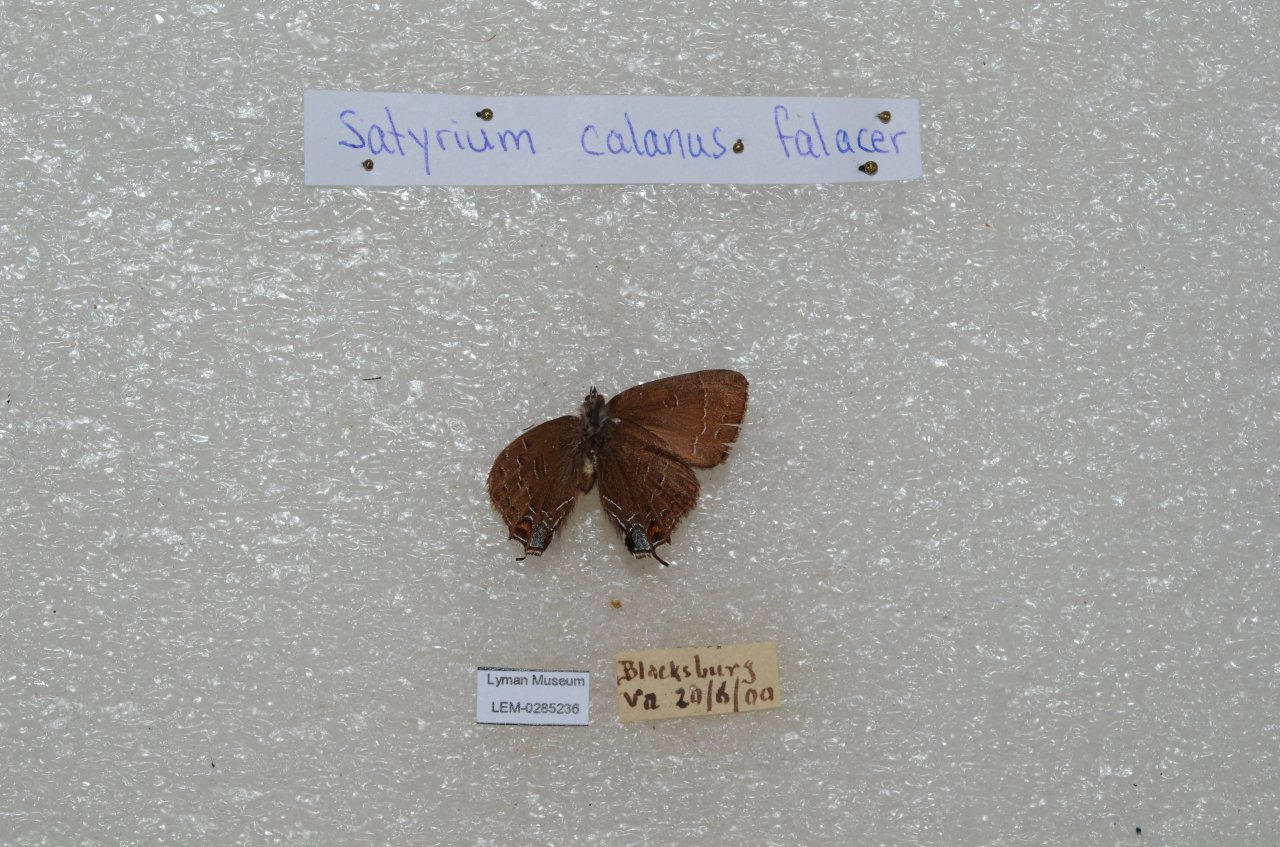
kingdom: Animalia
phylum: Arthropoda
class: Insecta
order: Lepidoptera
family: Lycaenidae
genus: Satyrium
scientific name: Satyrium calanus
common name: Banded Hairstreak
